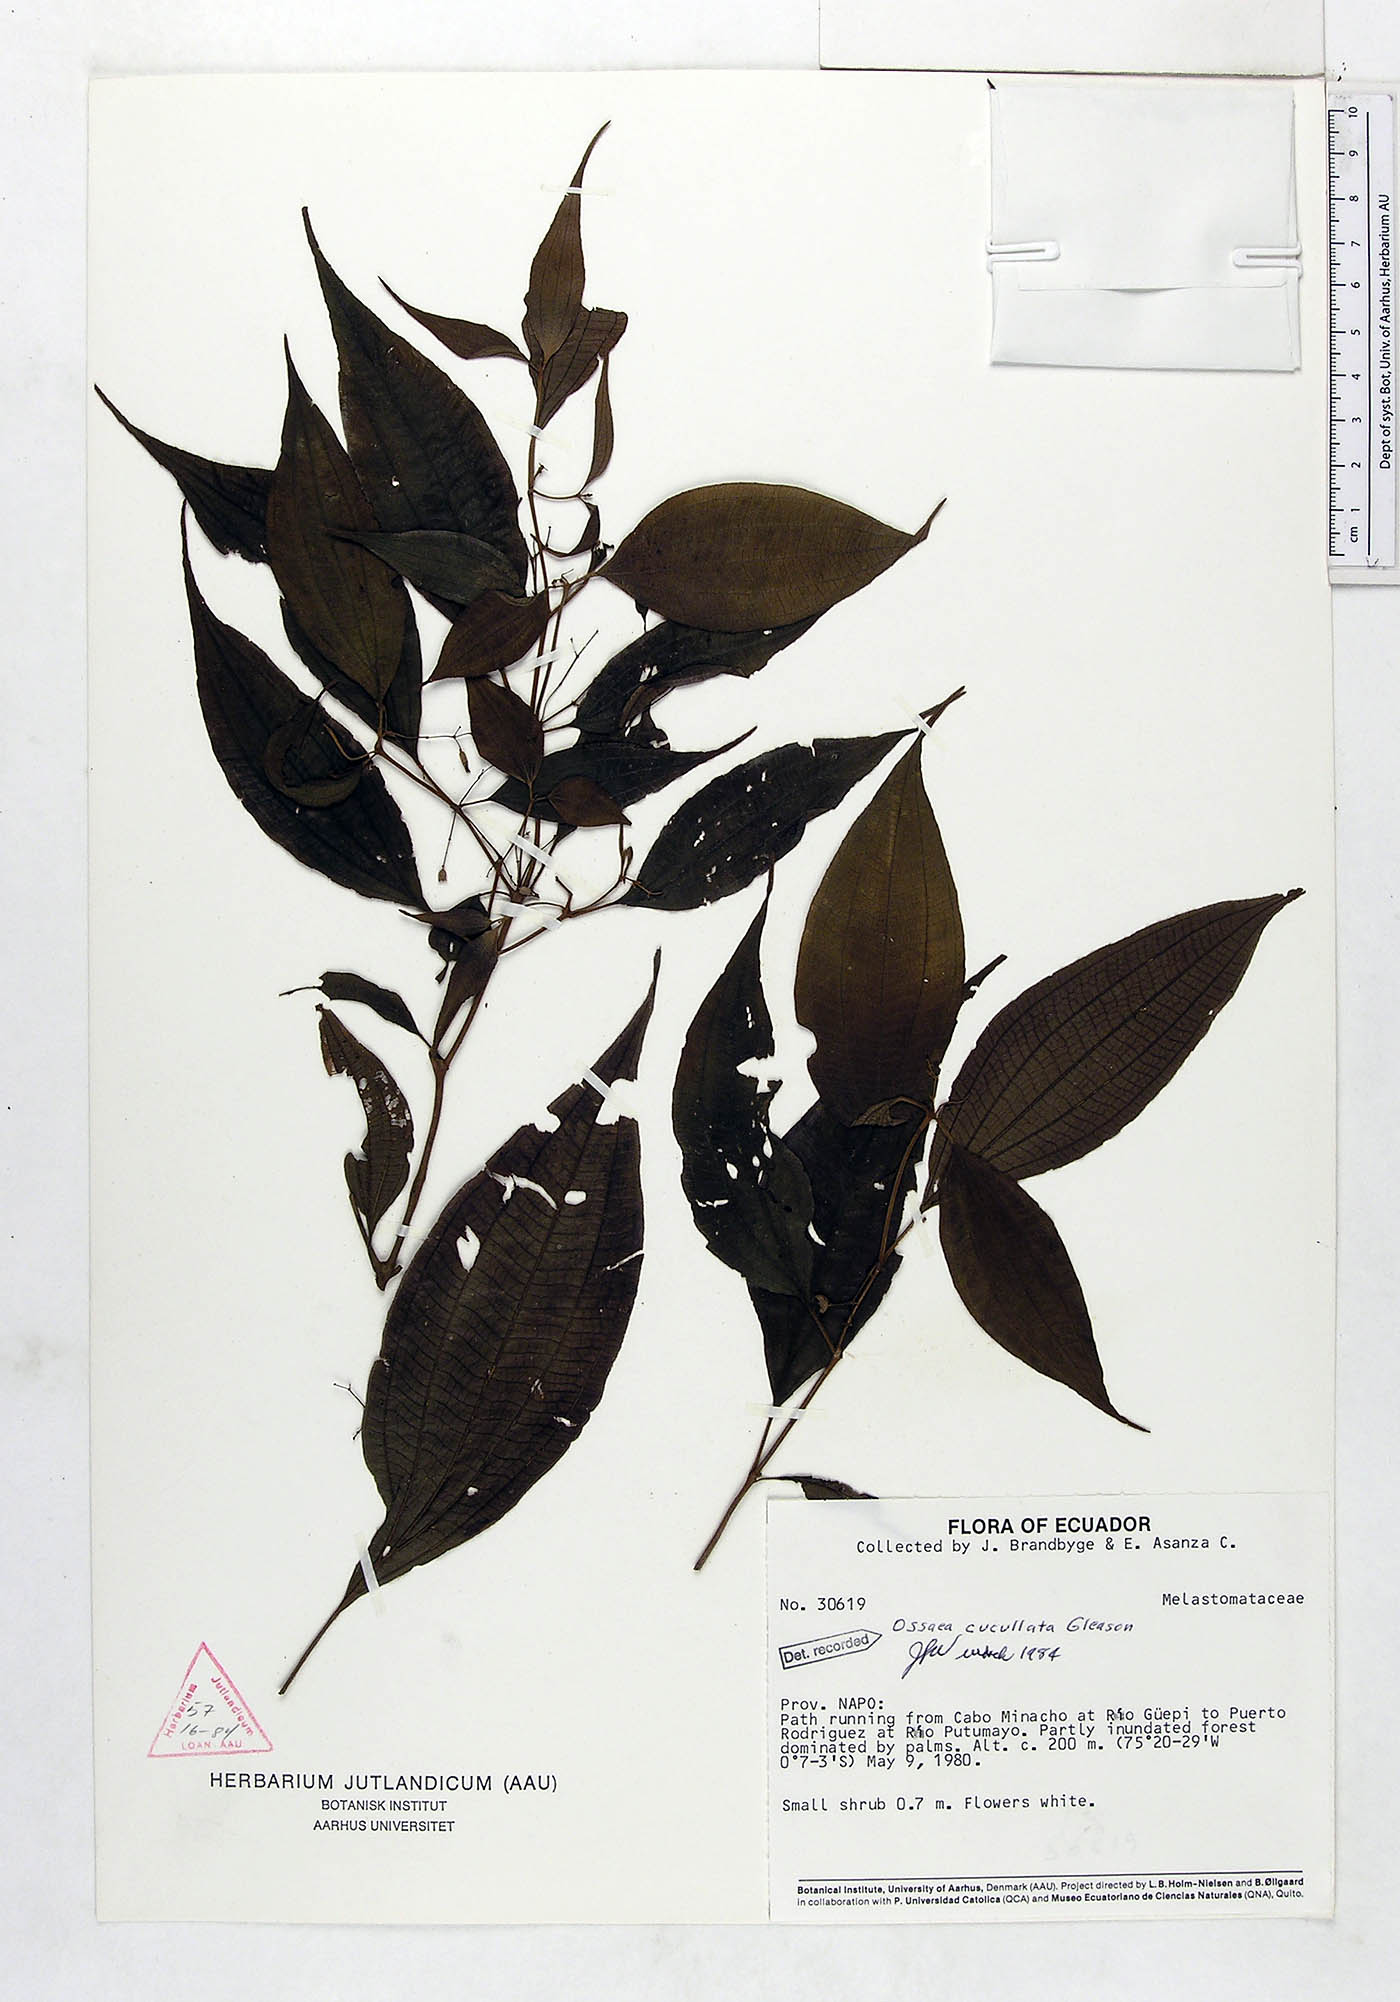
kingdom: Plantae
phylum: Tracheophyta
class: Magnoliopsida
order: Myrtales
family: Melastomataceae
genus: Miconia
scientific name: Miconia cucullata
